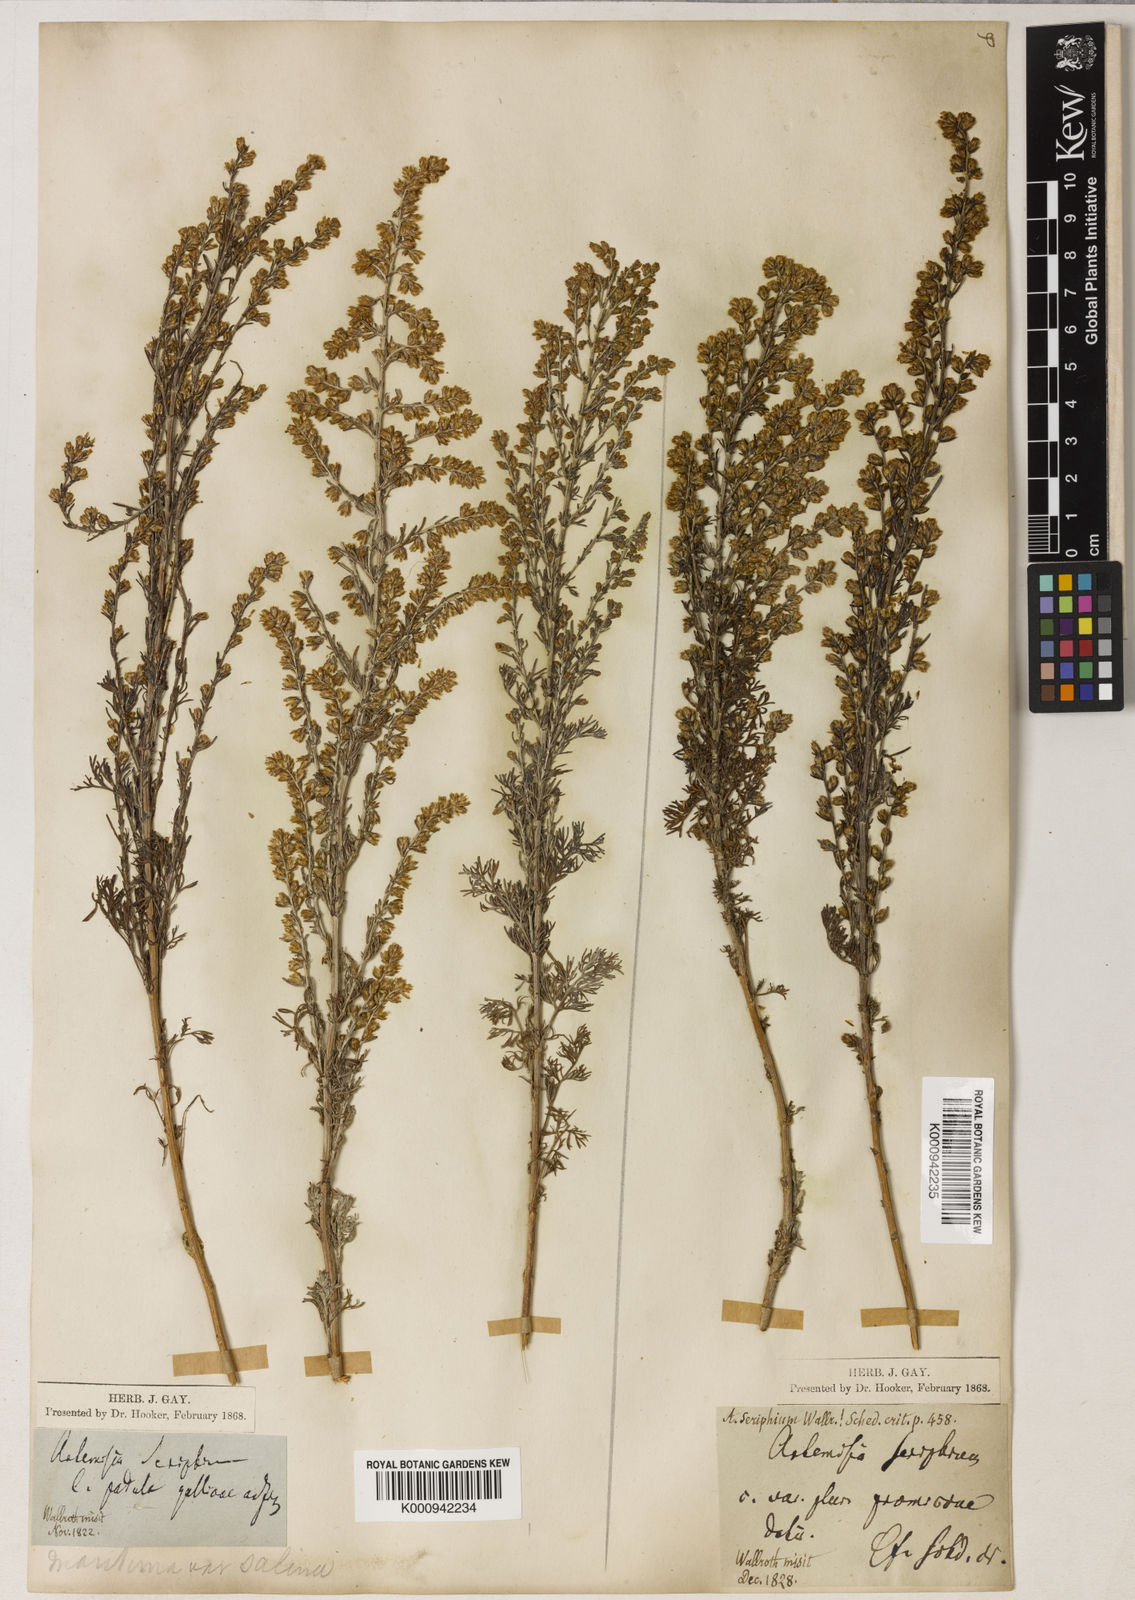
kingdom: Plantae
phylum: Tracheophyta
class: Magnoliopsida
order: Asterales
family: Asteraceae
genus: Artemisia
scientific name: Artemisia maritima
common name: Wormseed
